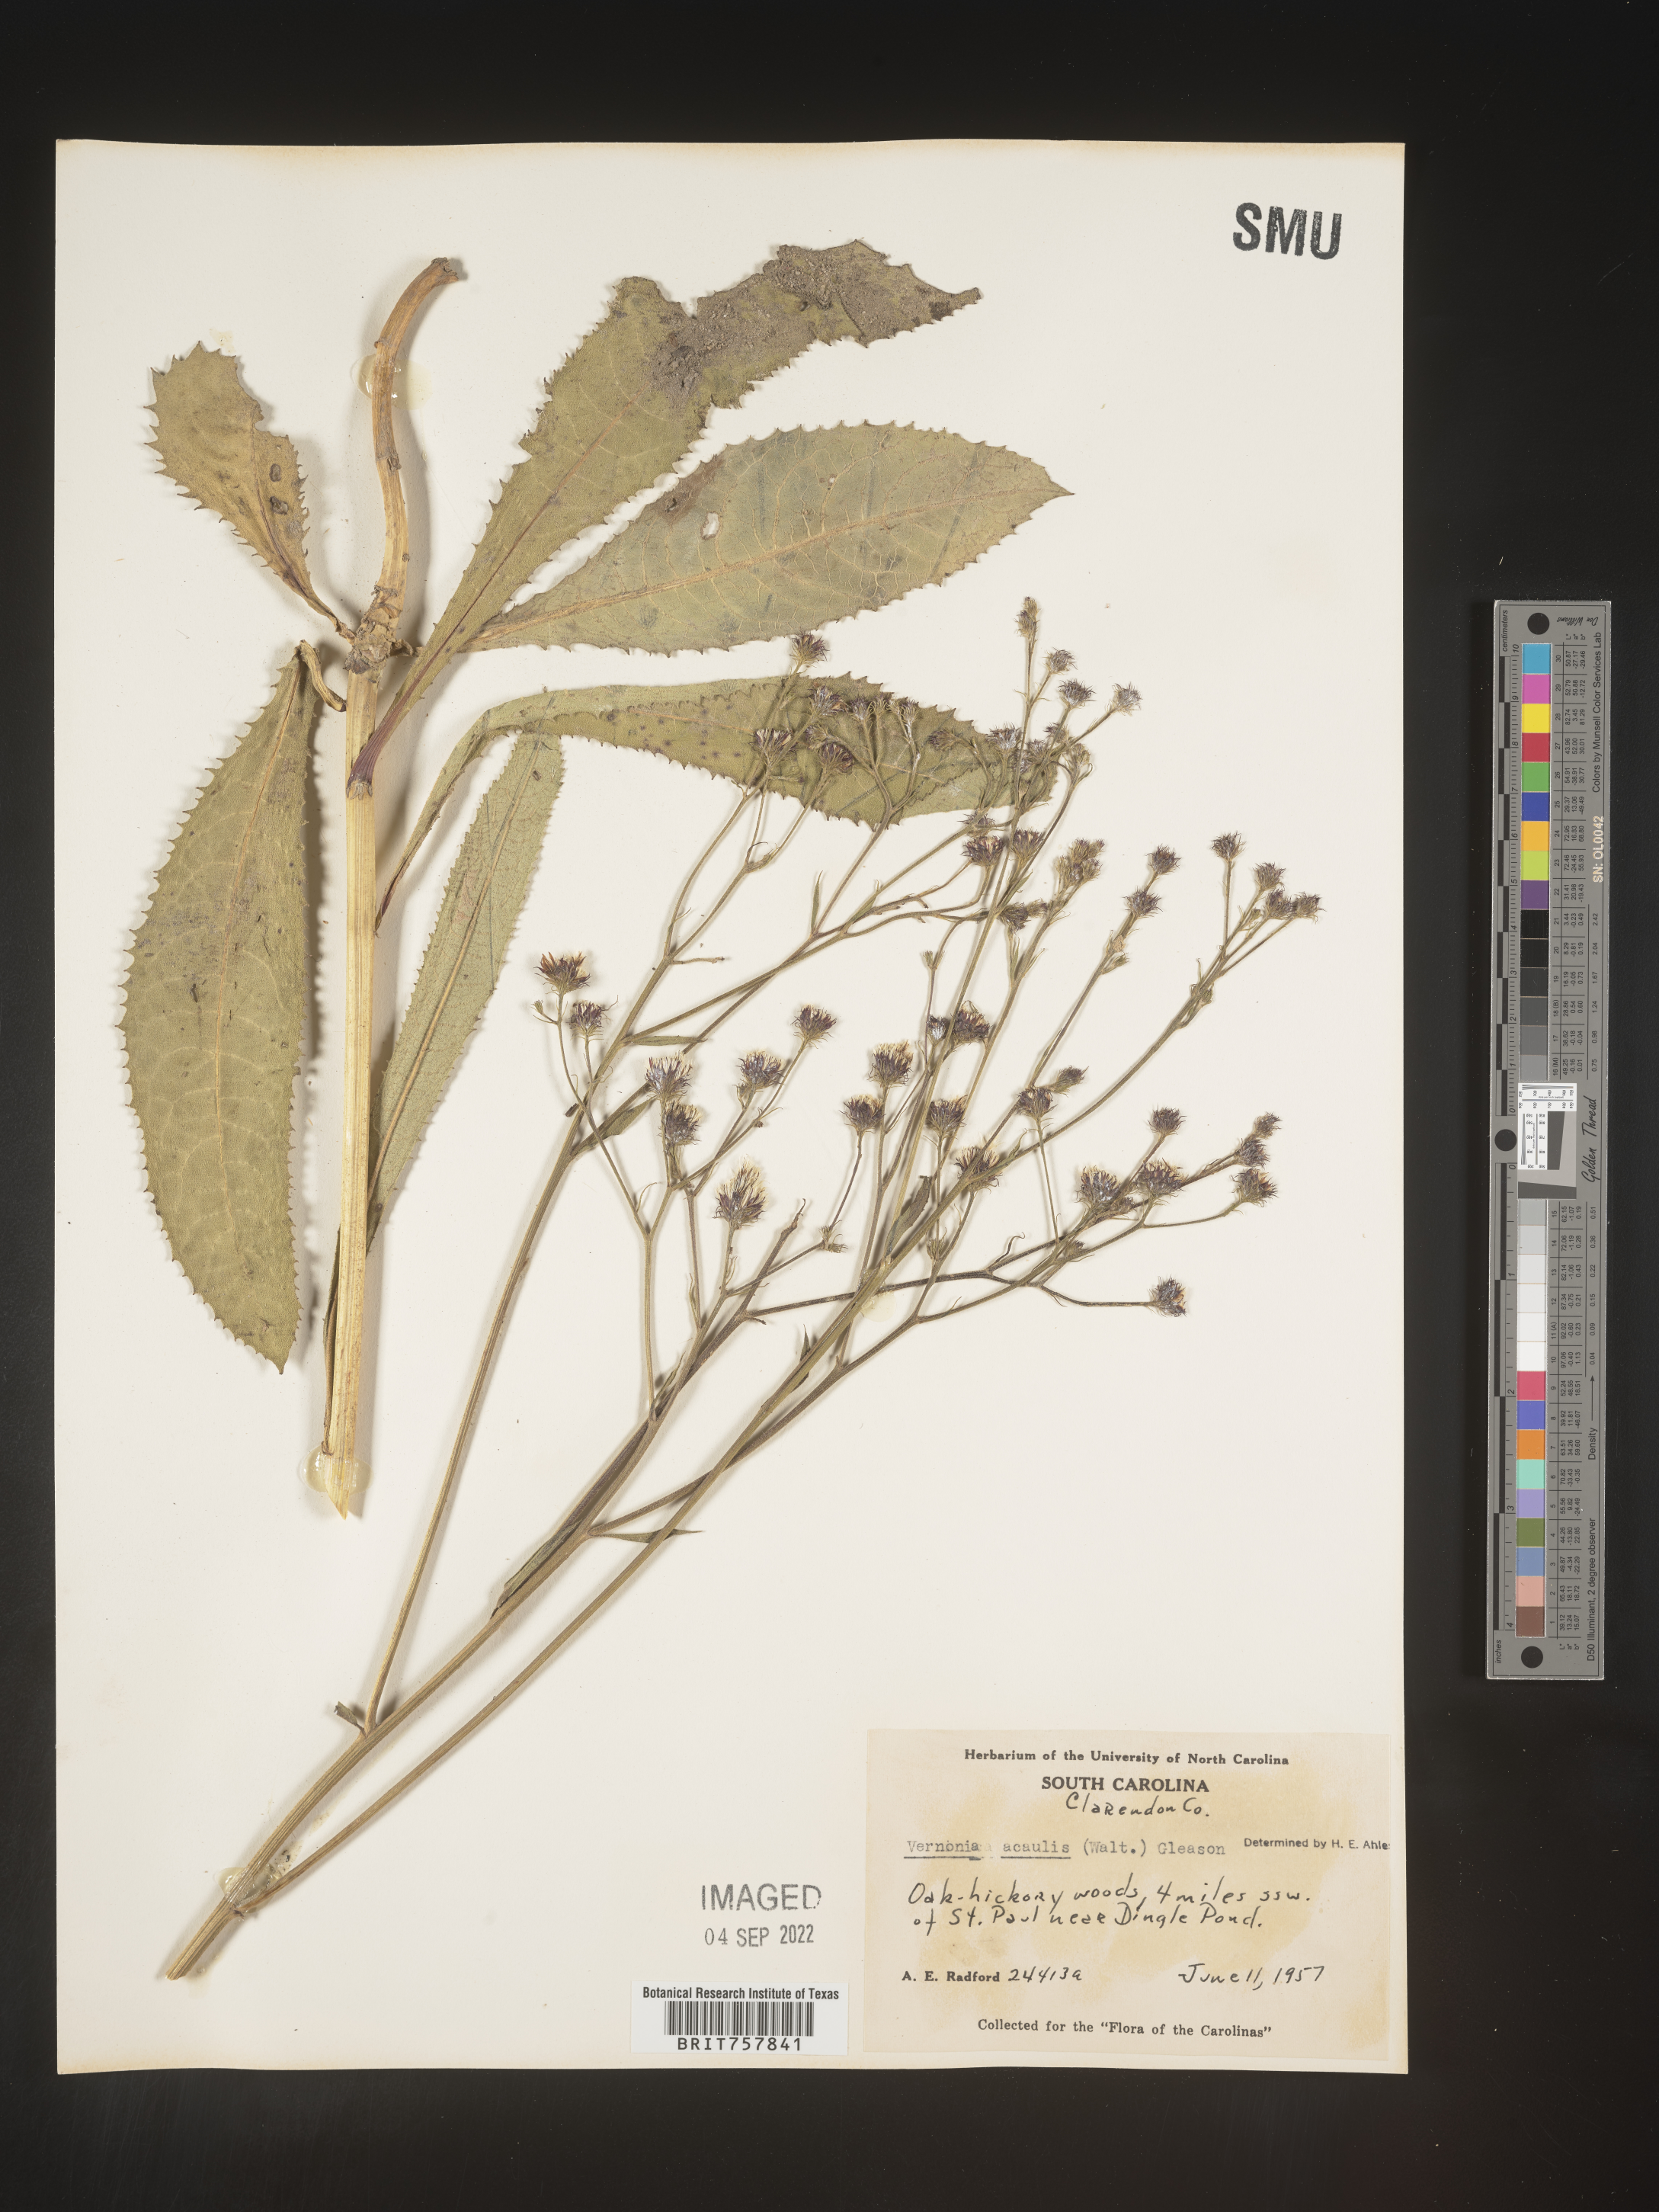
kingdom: Plantae
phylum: Tracheophyta
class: Magnoliopsida
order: Asterales
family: Asteraceae
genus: Vernonia
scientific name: Vernonia acaulis
